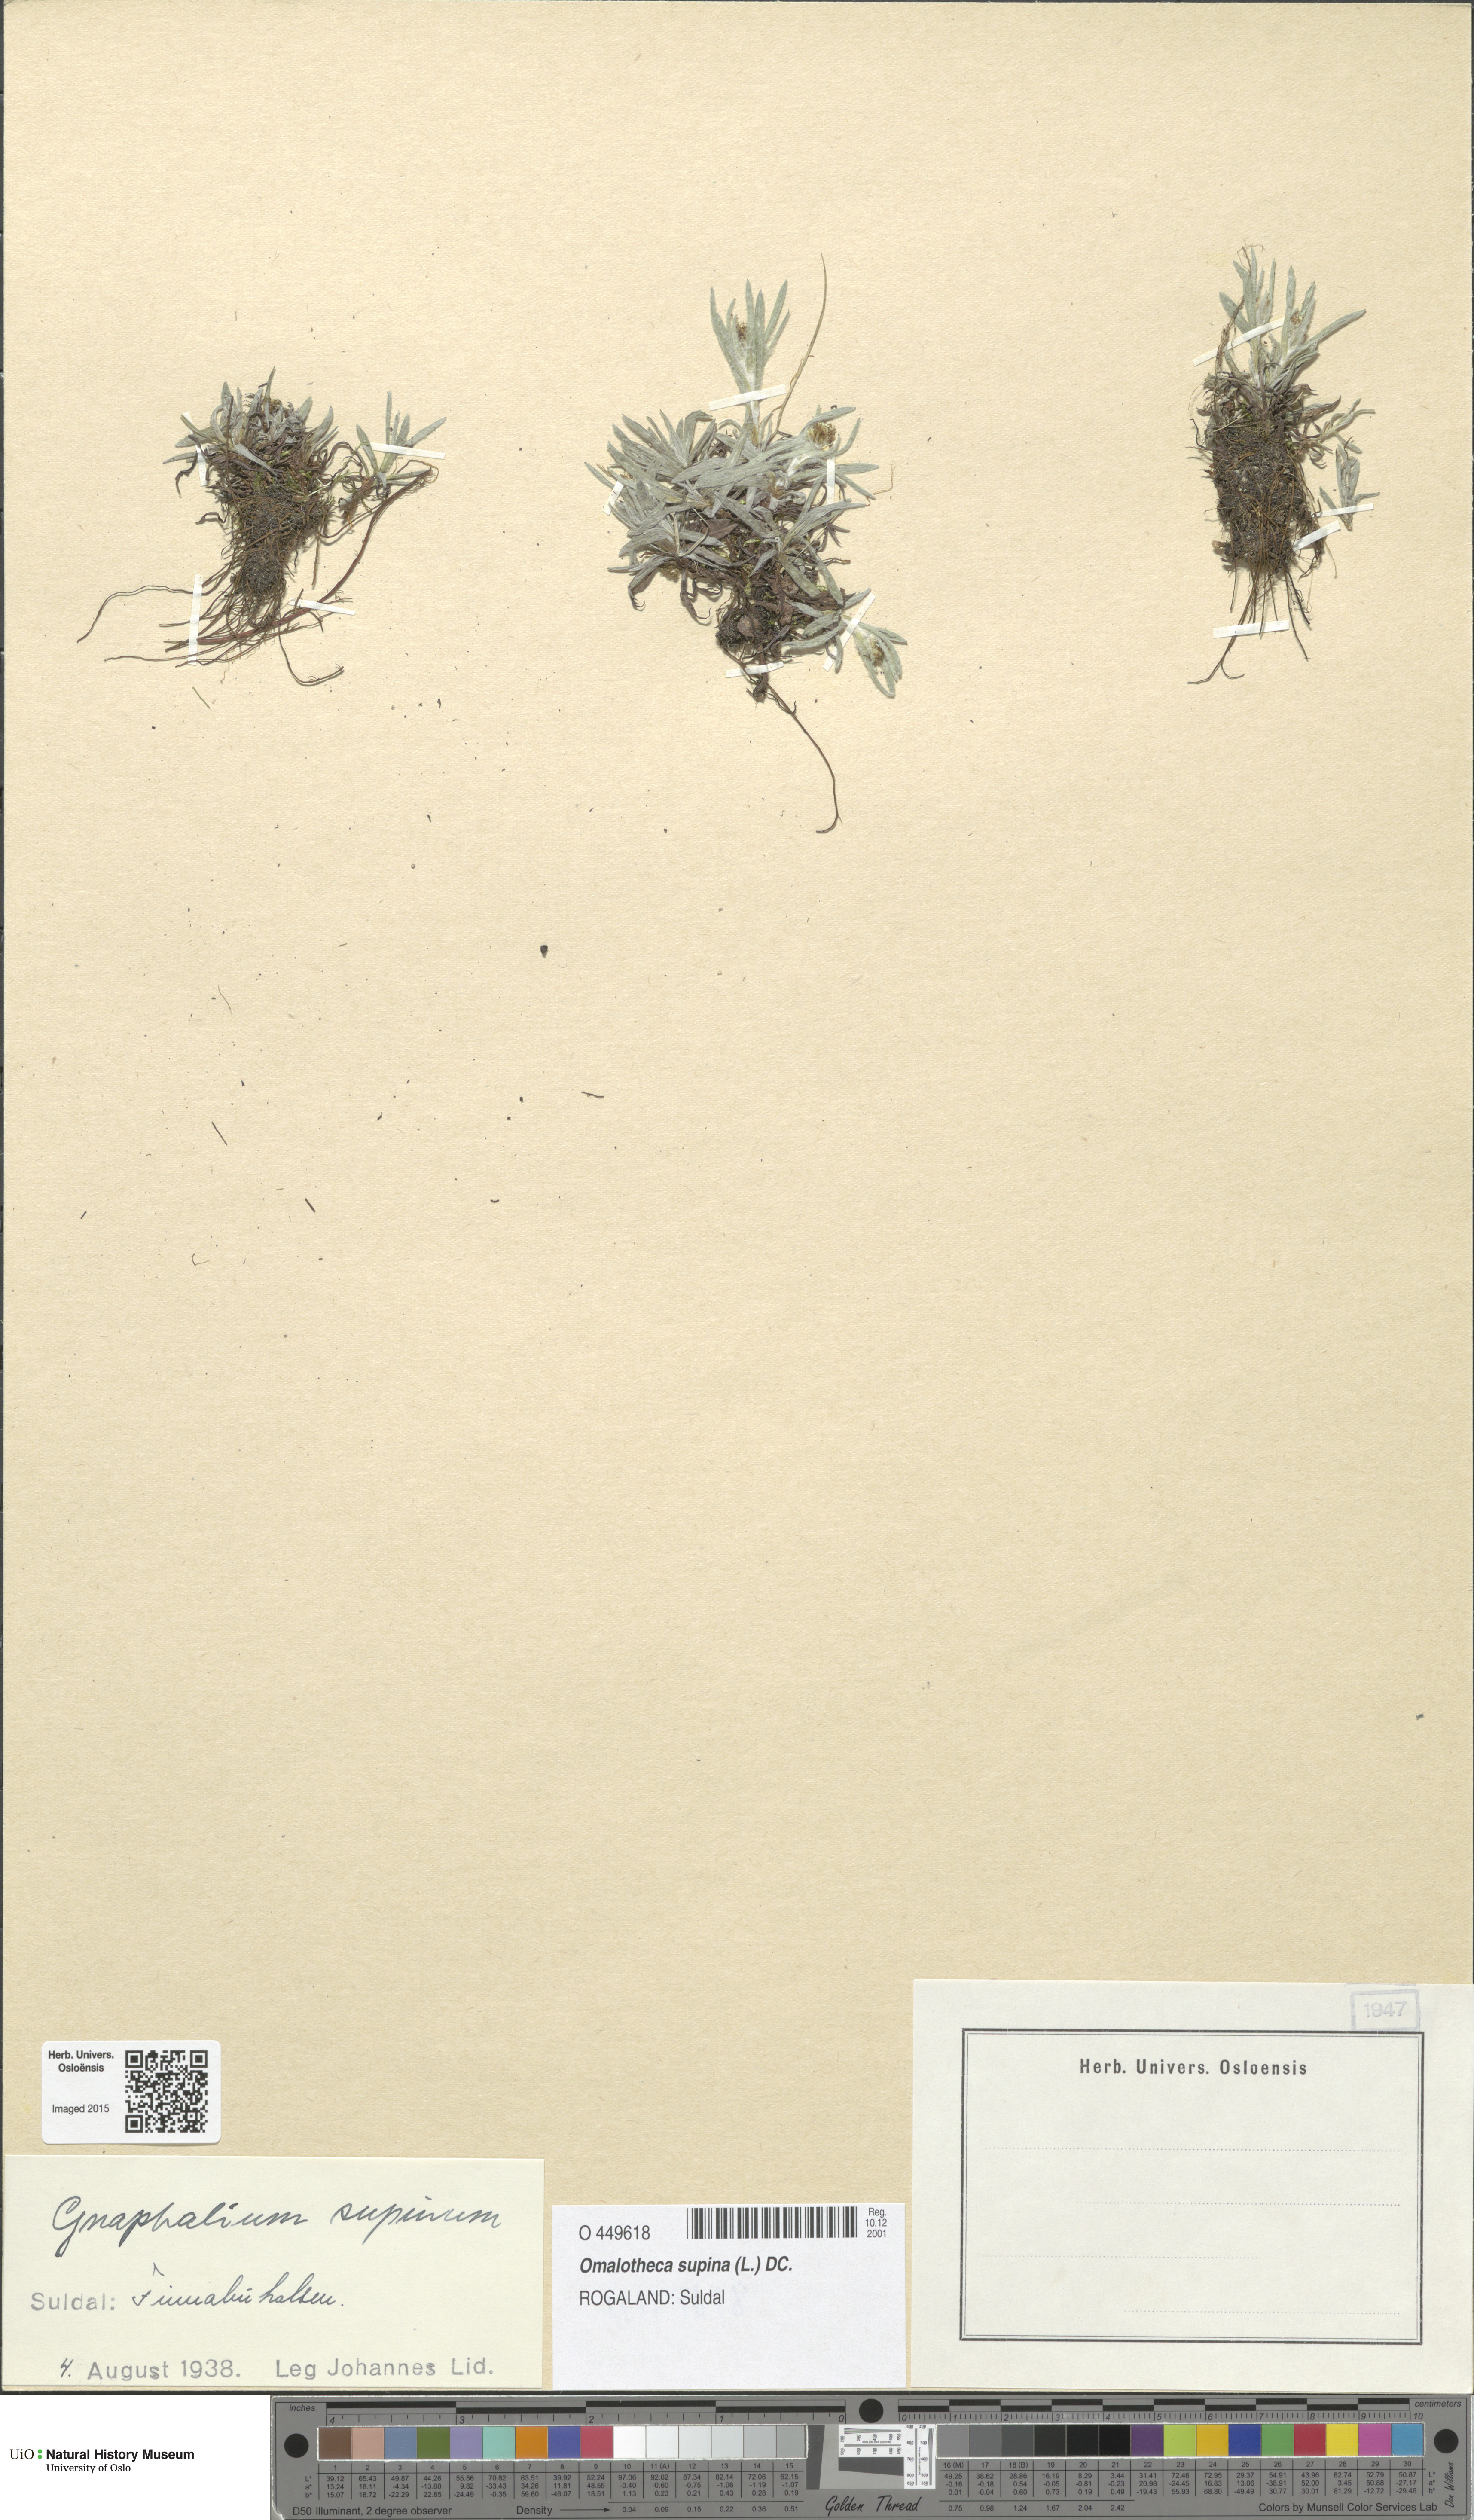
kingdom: Plantae
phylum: Tracheophyta
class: Magnoliopsida
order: Asterales
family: Asteraceae
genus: Omalotheca
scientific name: Omalotheca supina
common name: Alpine arctic-cudweed
